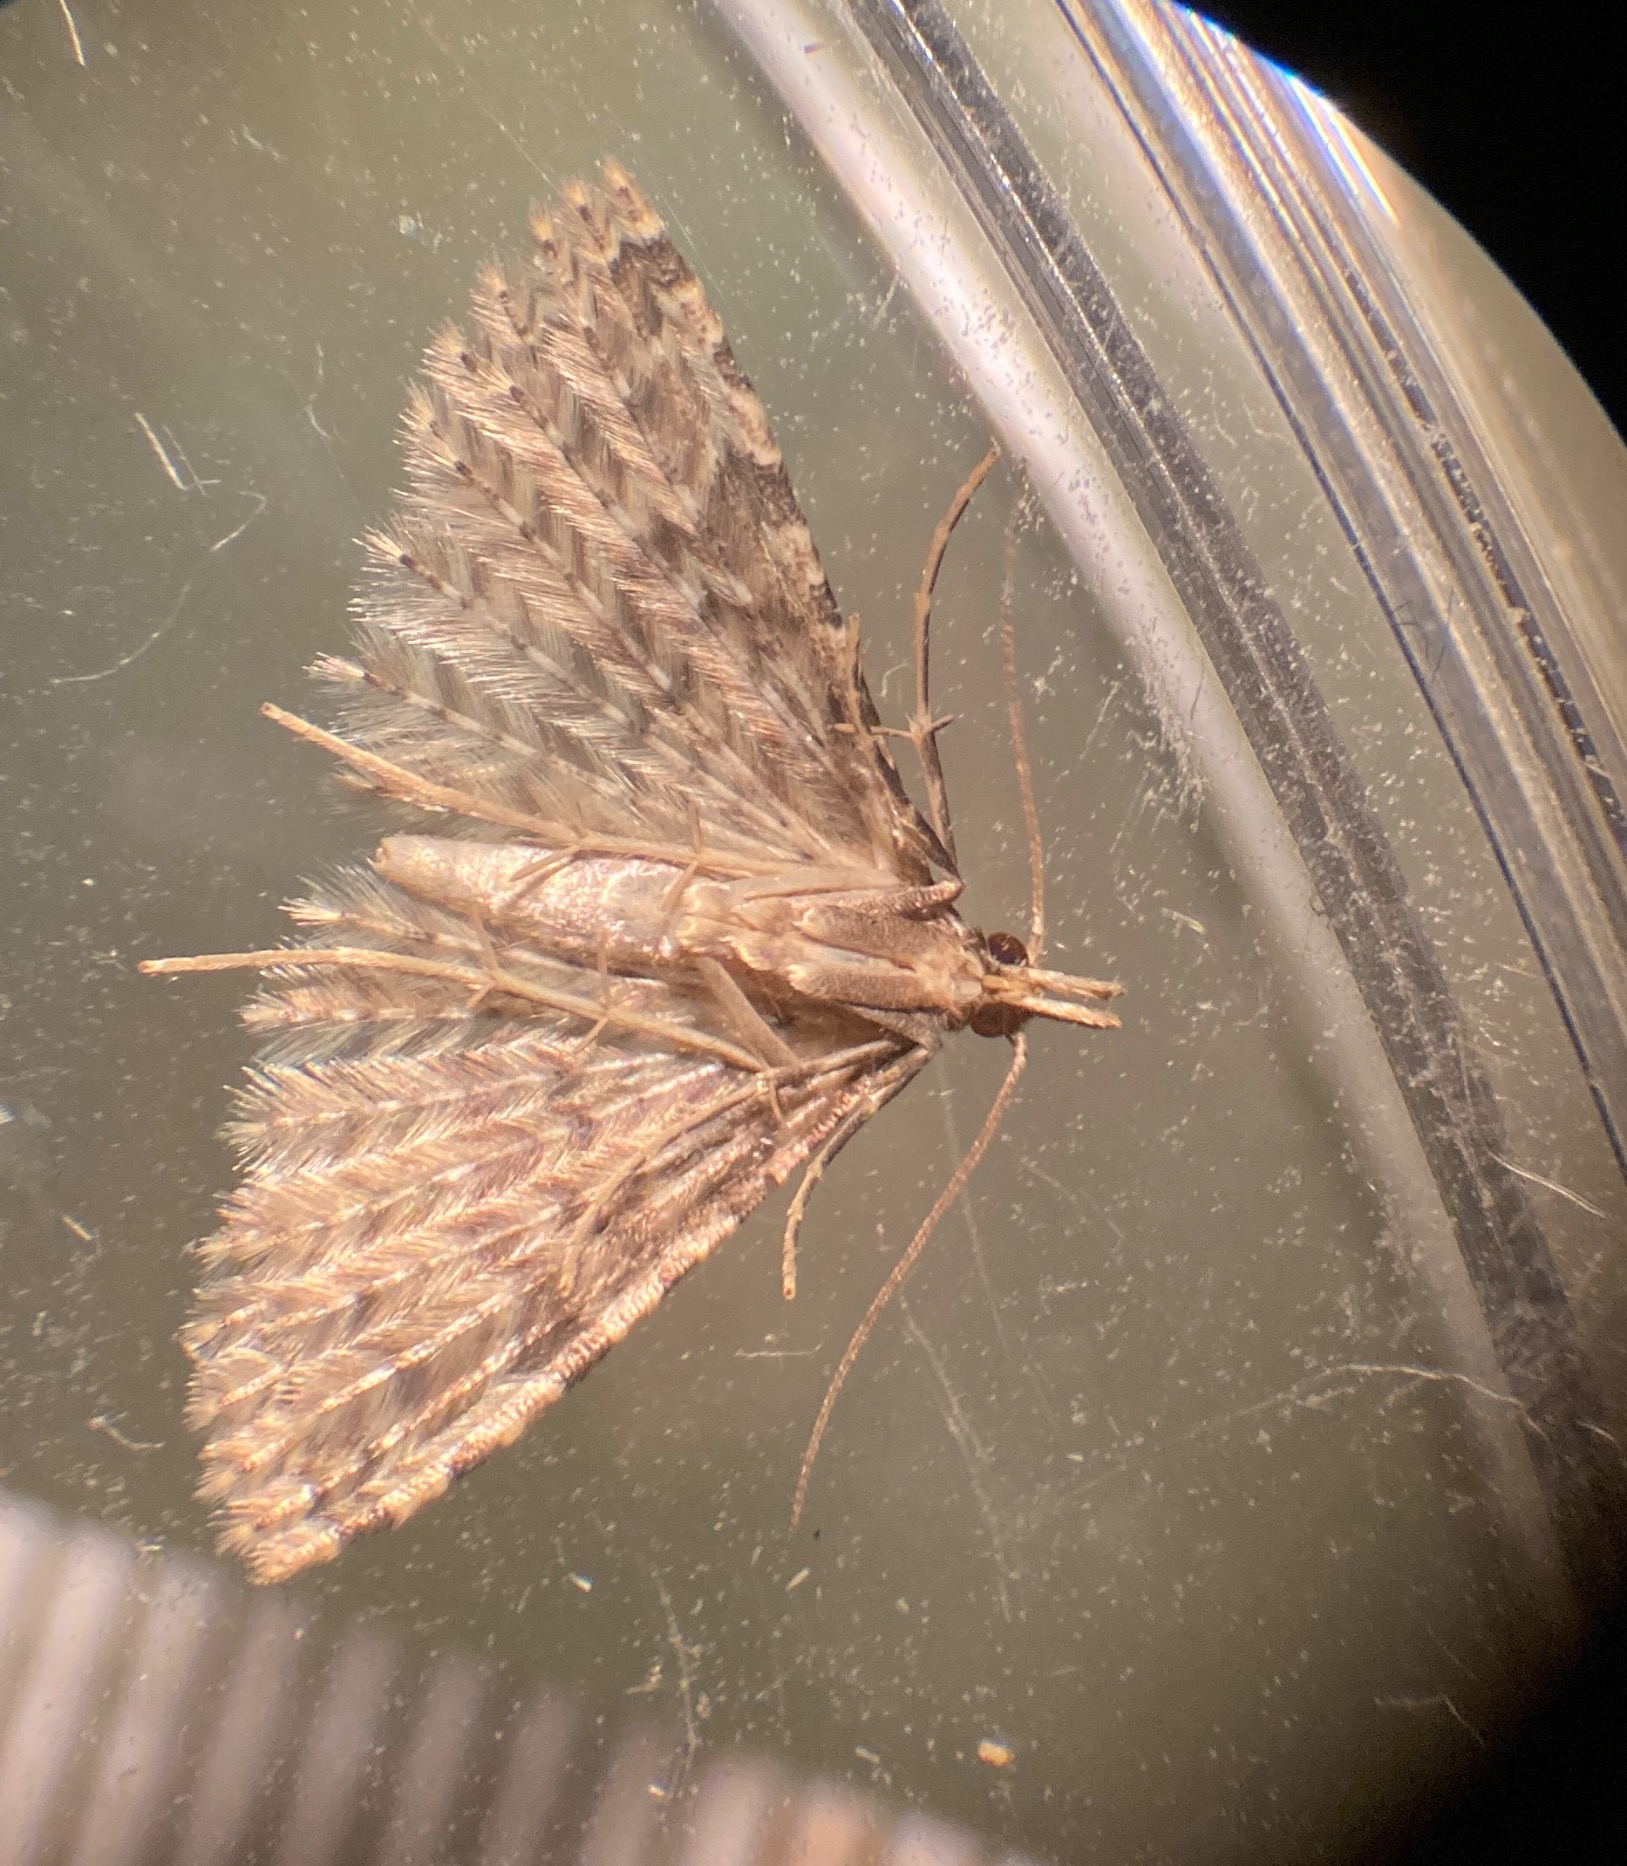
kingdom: Animalia
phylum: Arthropoda
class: Insecta
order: Lepidoptera
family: Alucitidae
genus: Alucita
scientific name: Alucita hexadactyla
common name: Kaprifoliefjermøl
